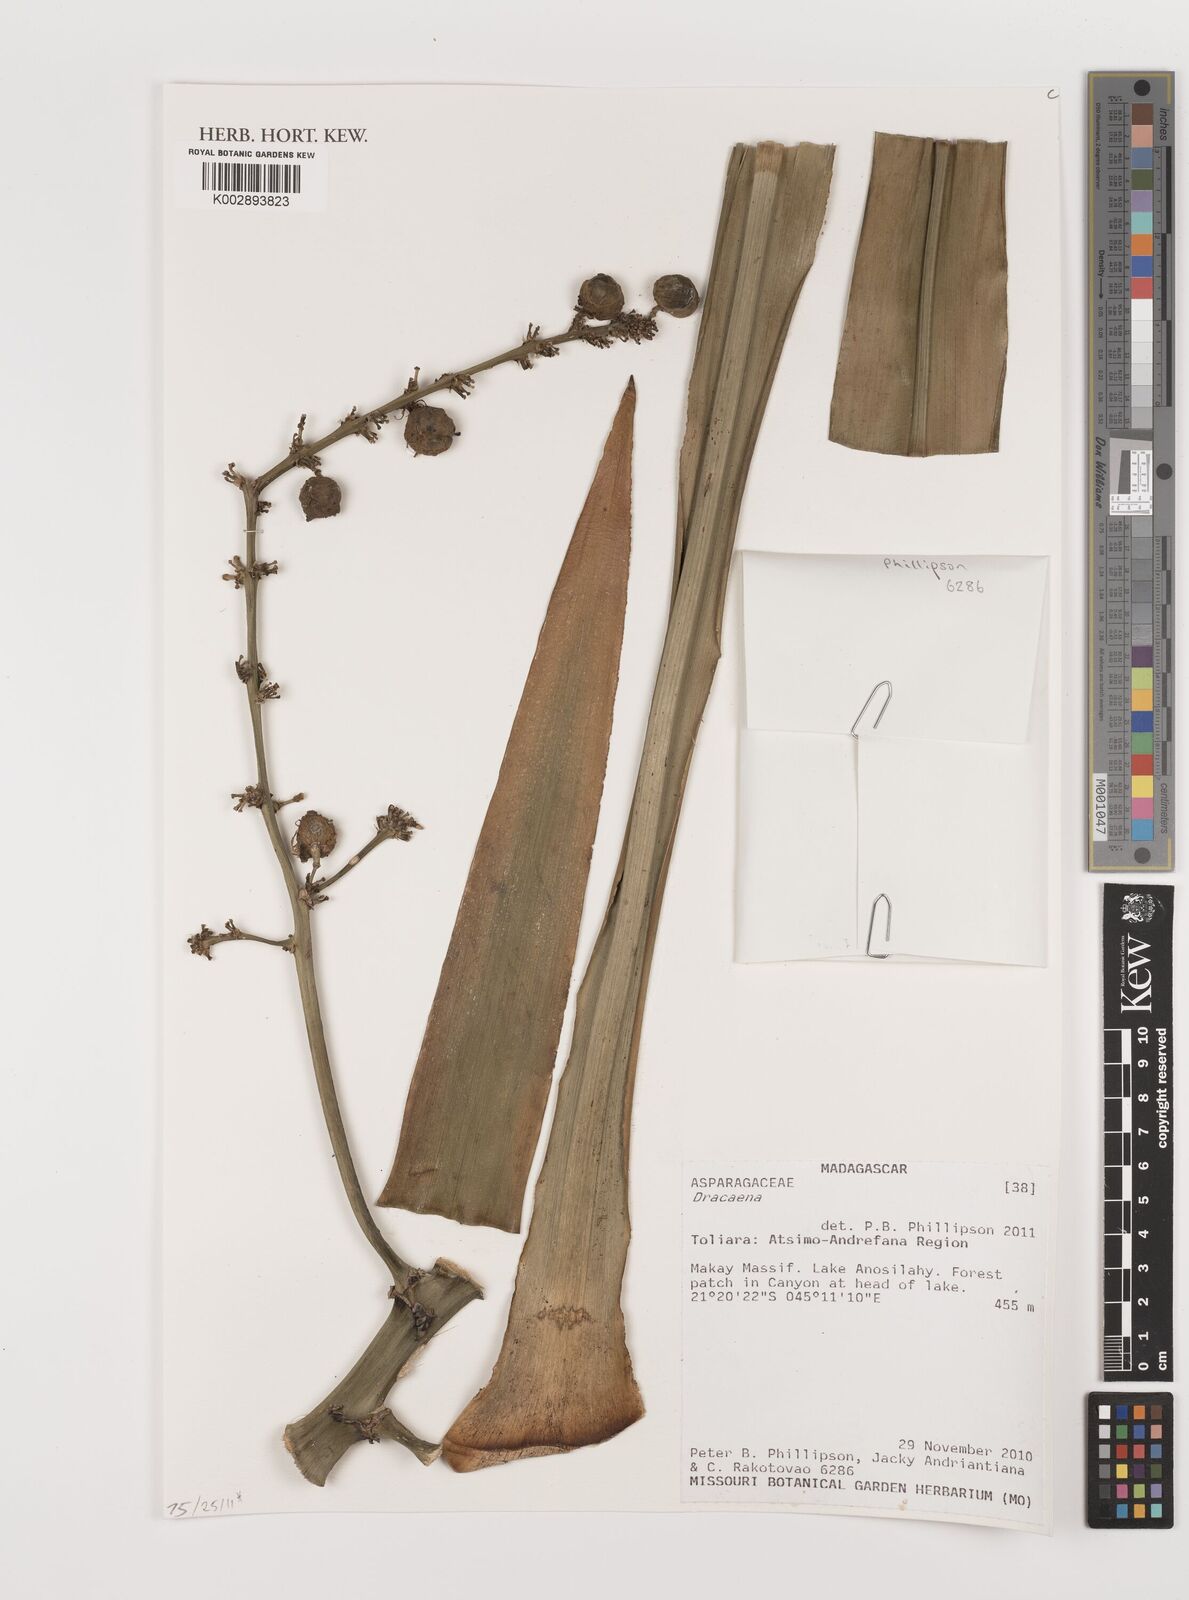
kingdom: Plantae
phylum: Tracheophyta
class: Liliopsida
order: Asparagales
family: Asparagaceae
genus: Dracaena
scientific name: Dracaena
